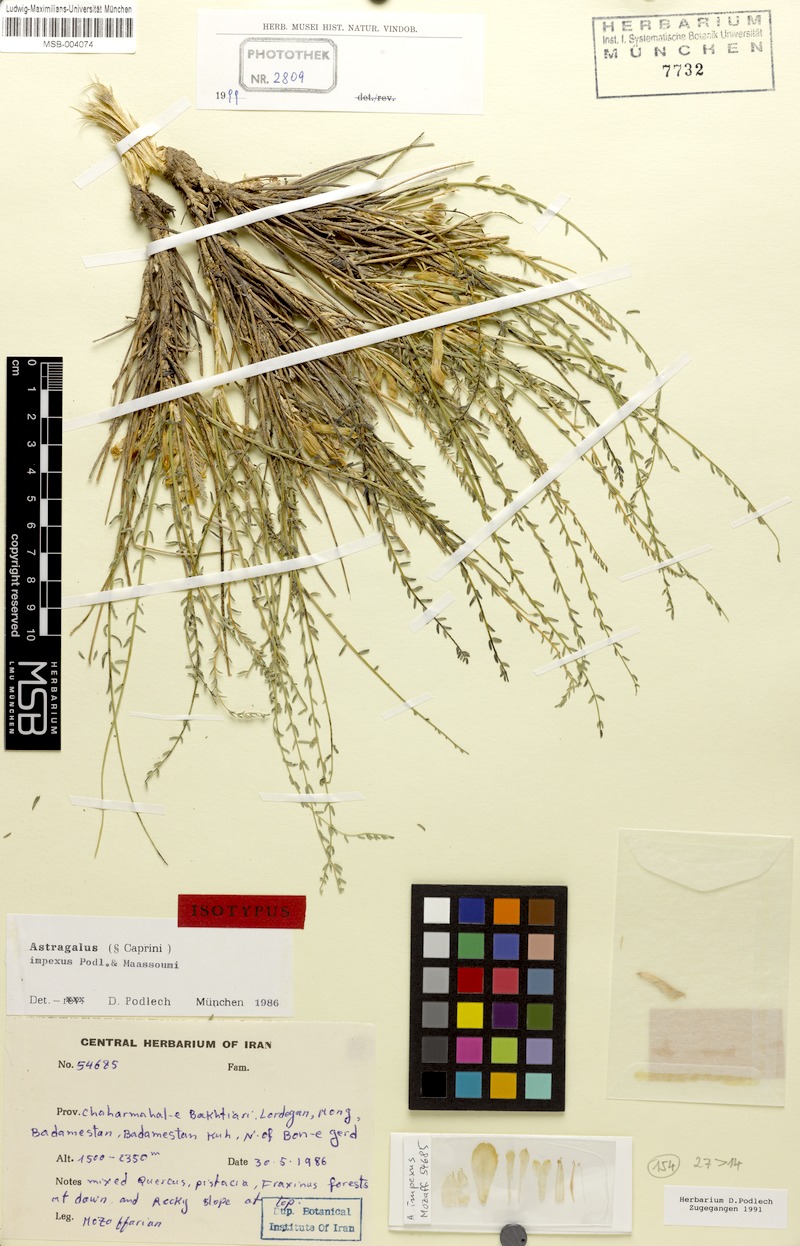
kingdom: Plantae
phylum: Tracheophyta
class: Magnoliopsida
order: Fabales
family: Fabaceae
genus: Astragalus
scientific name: Astragalus impexus
